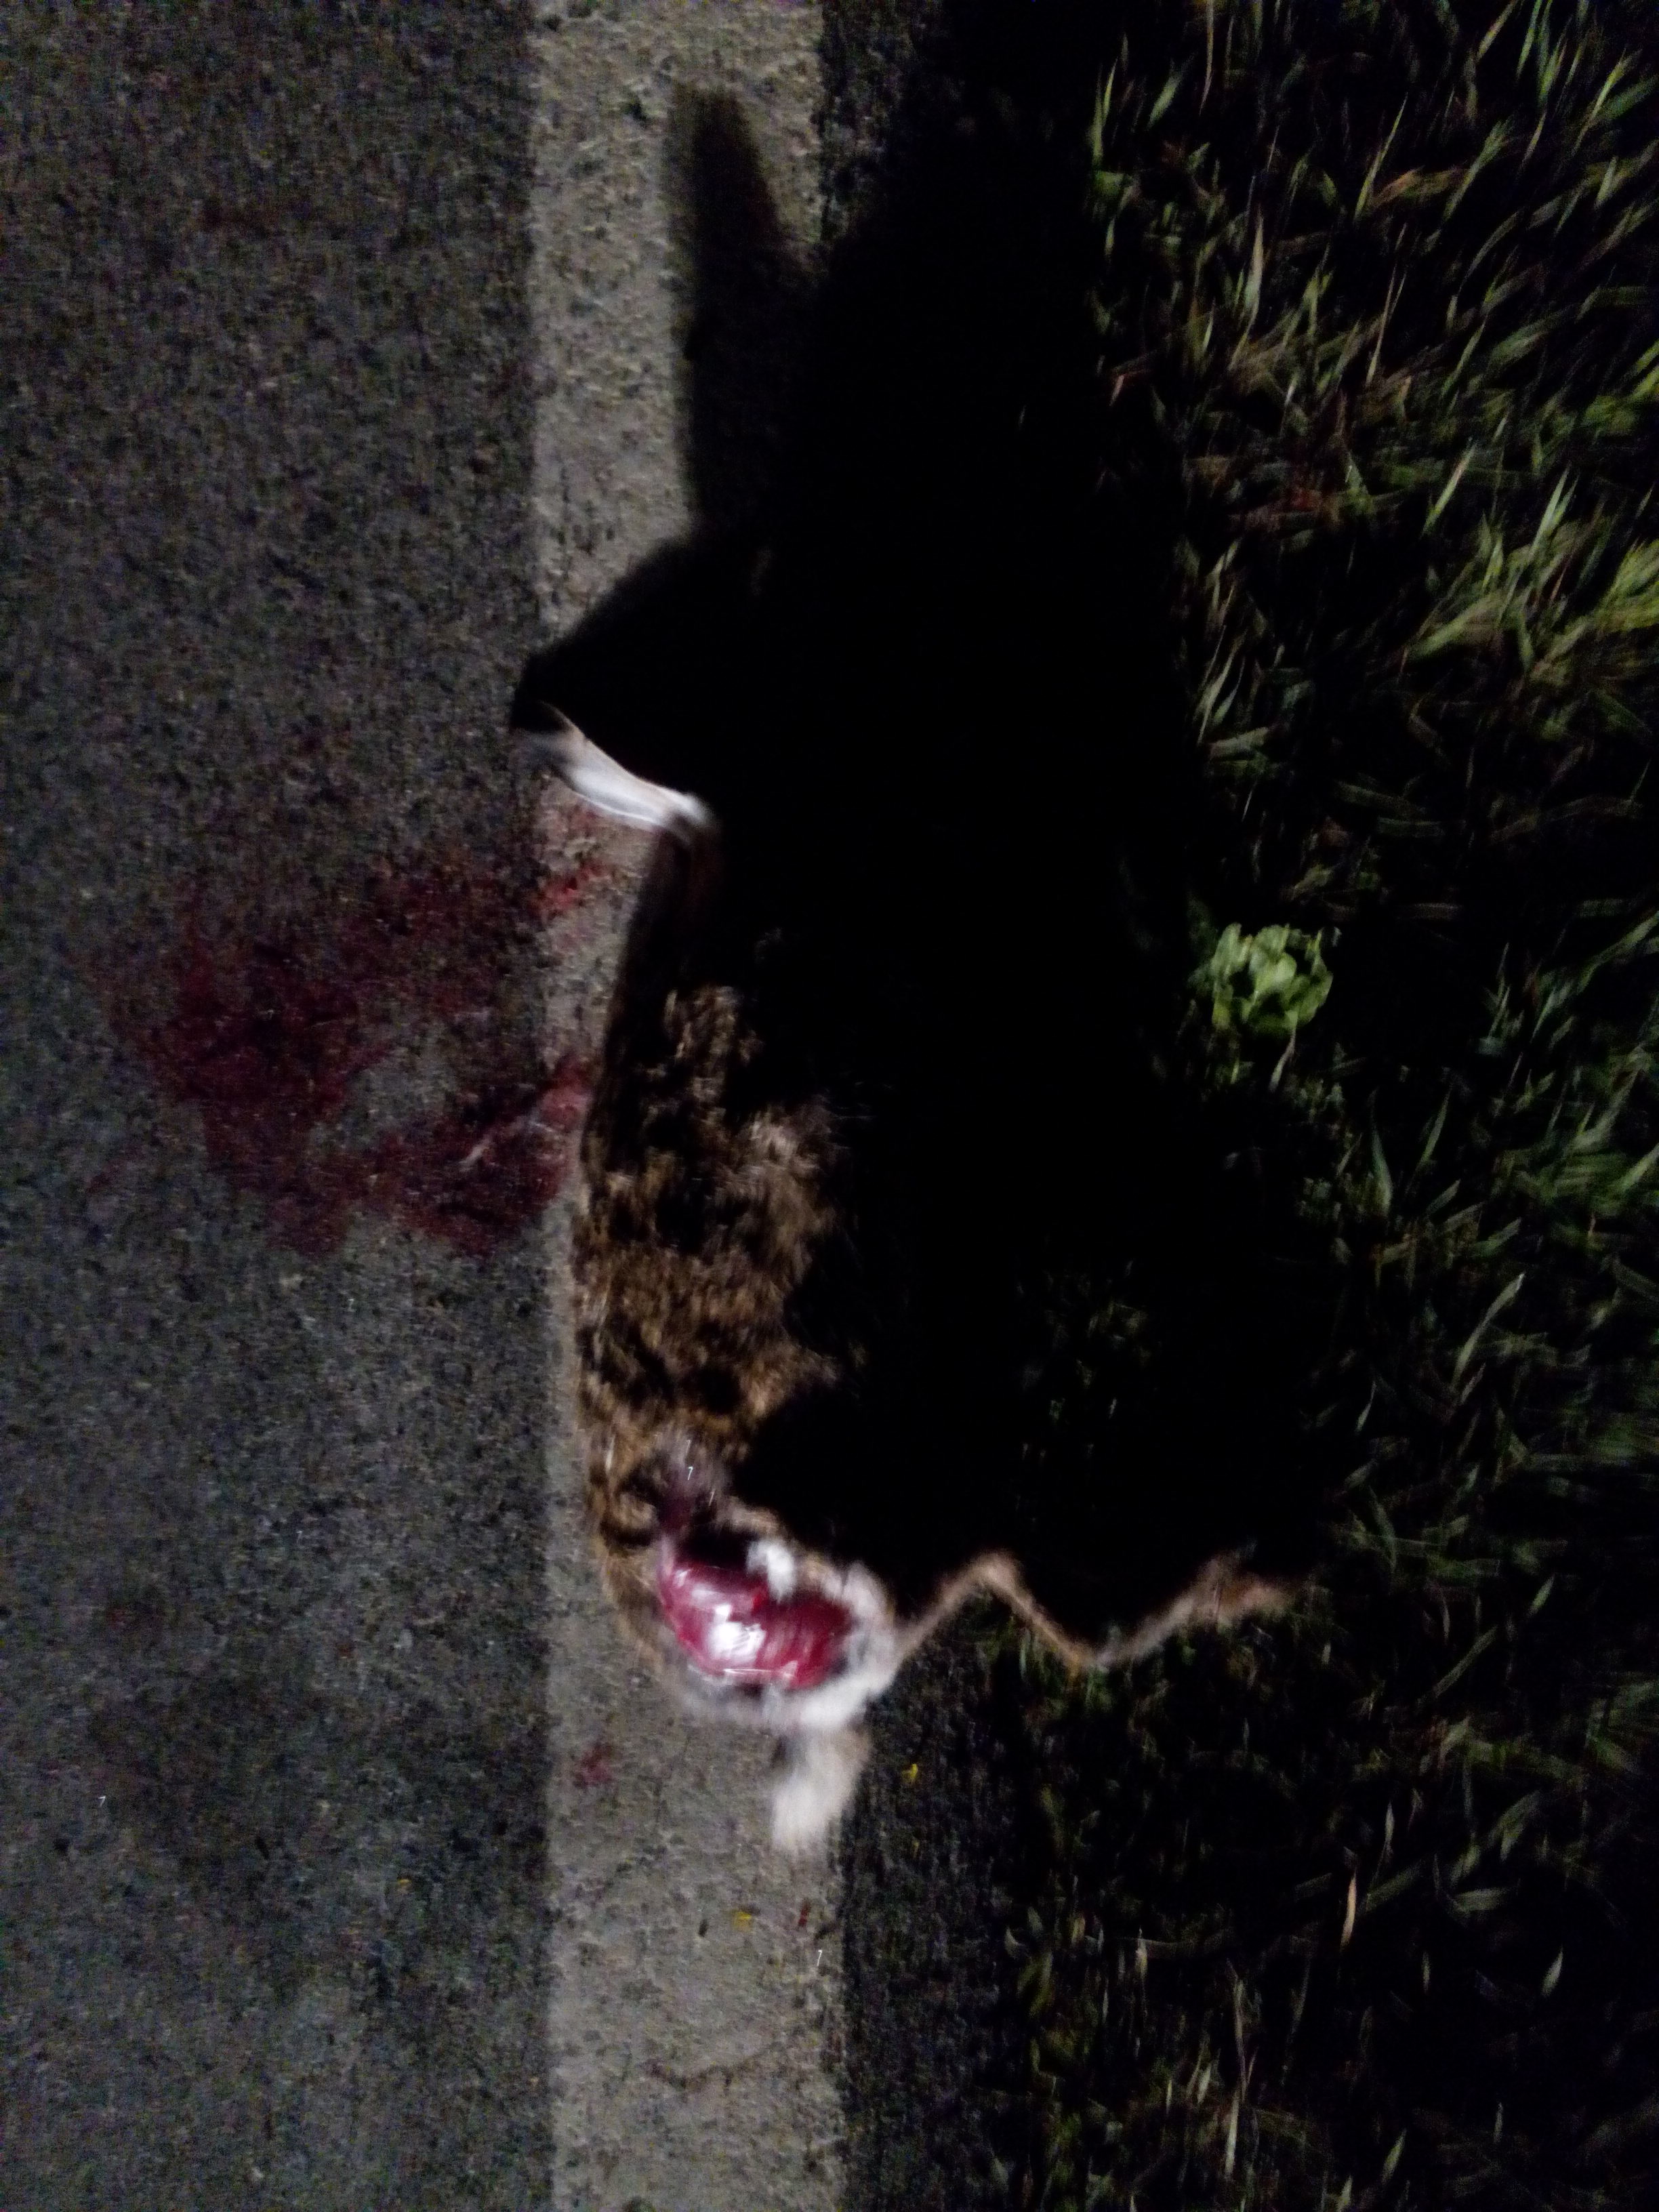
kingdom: Animalia
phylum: Chordata
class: Mammalia
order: Lagomorpha
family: Leporidae
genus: Lepus
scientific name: Lepus europaeus
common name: European hare
